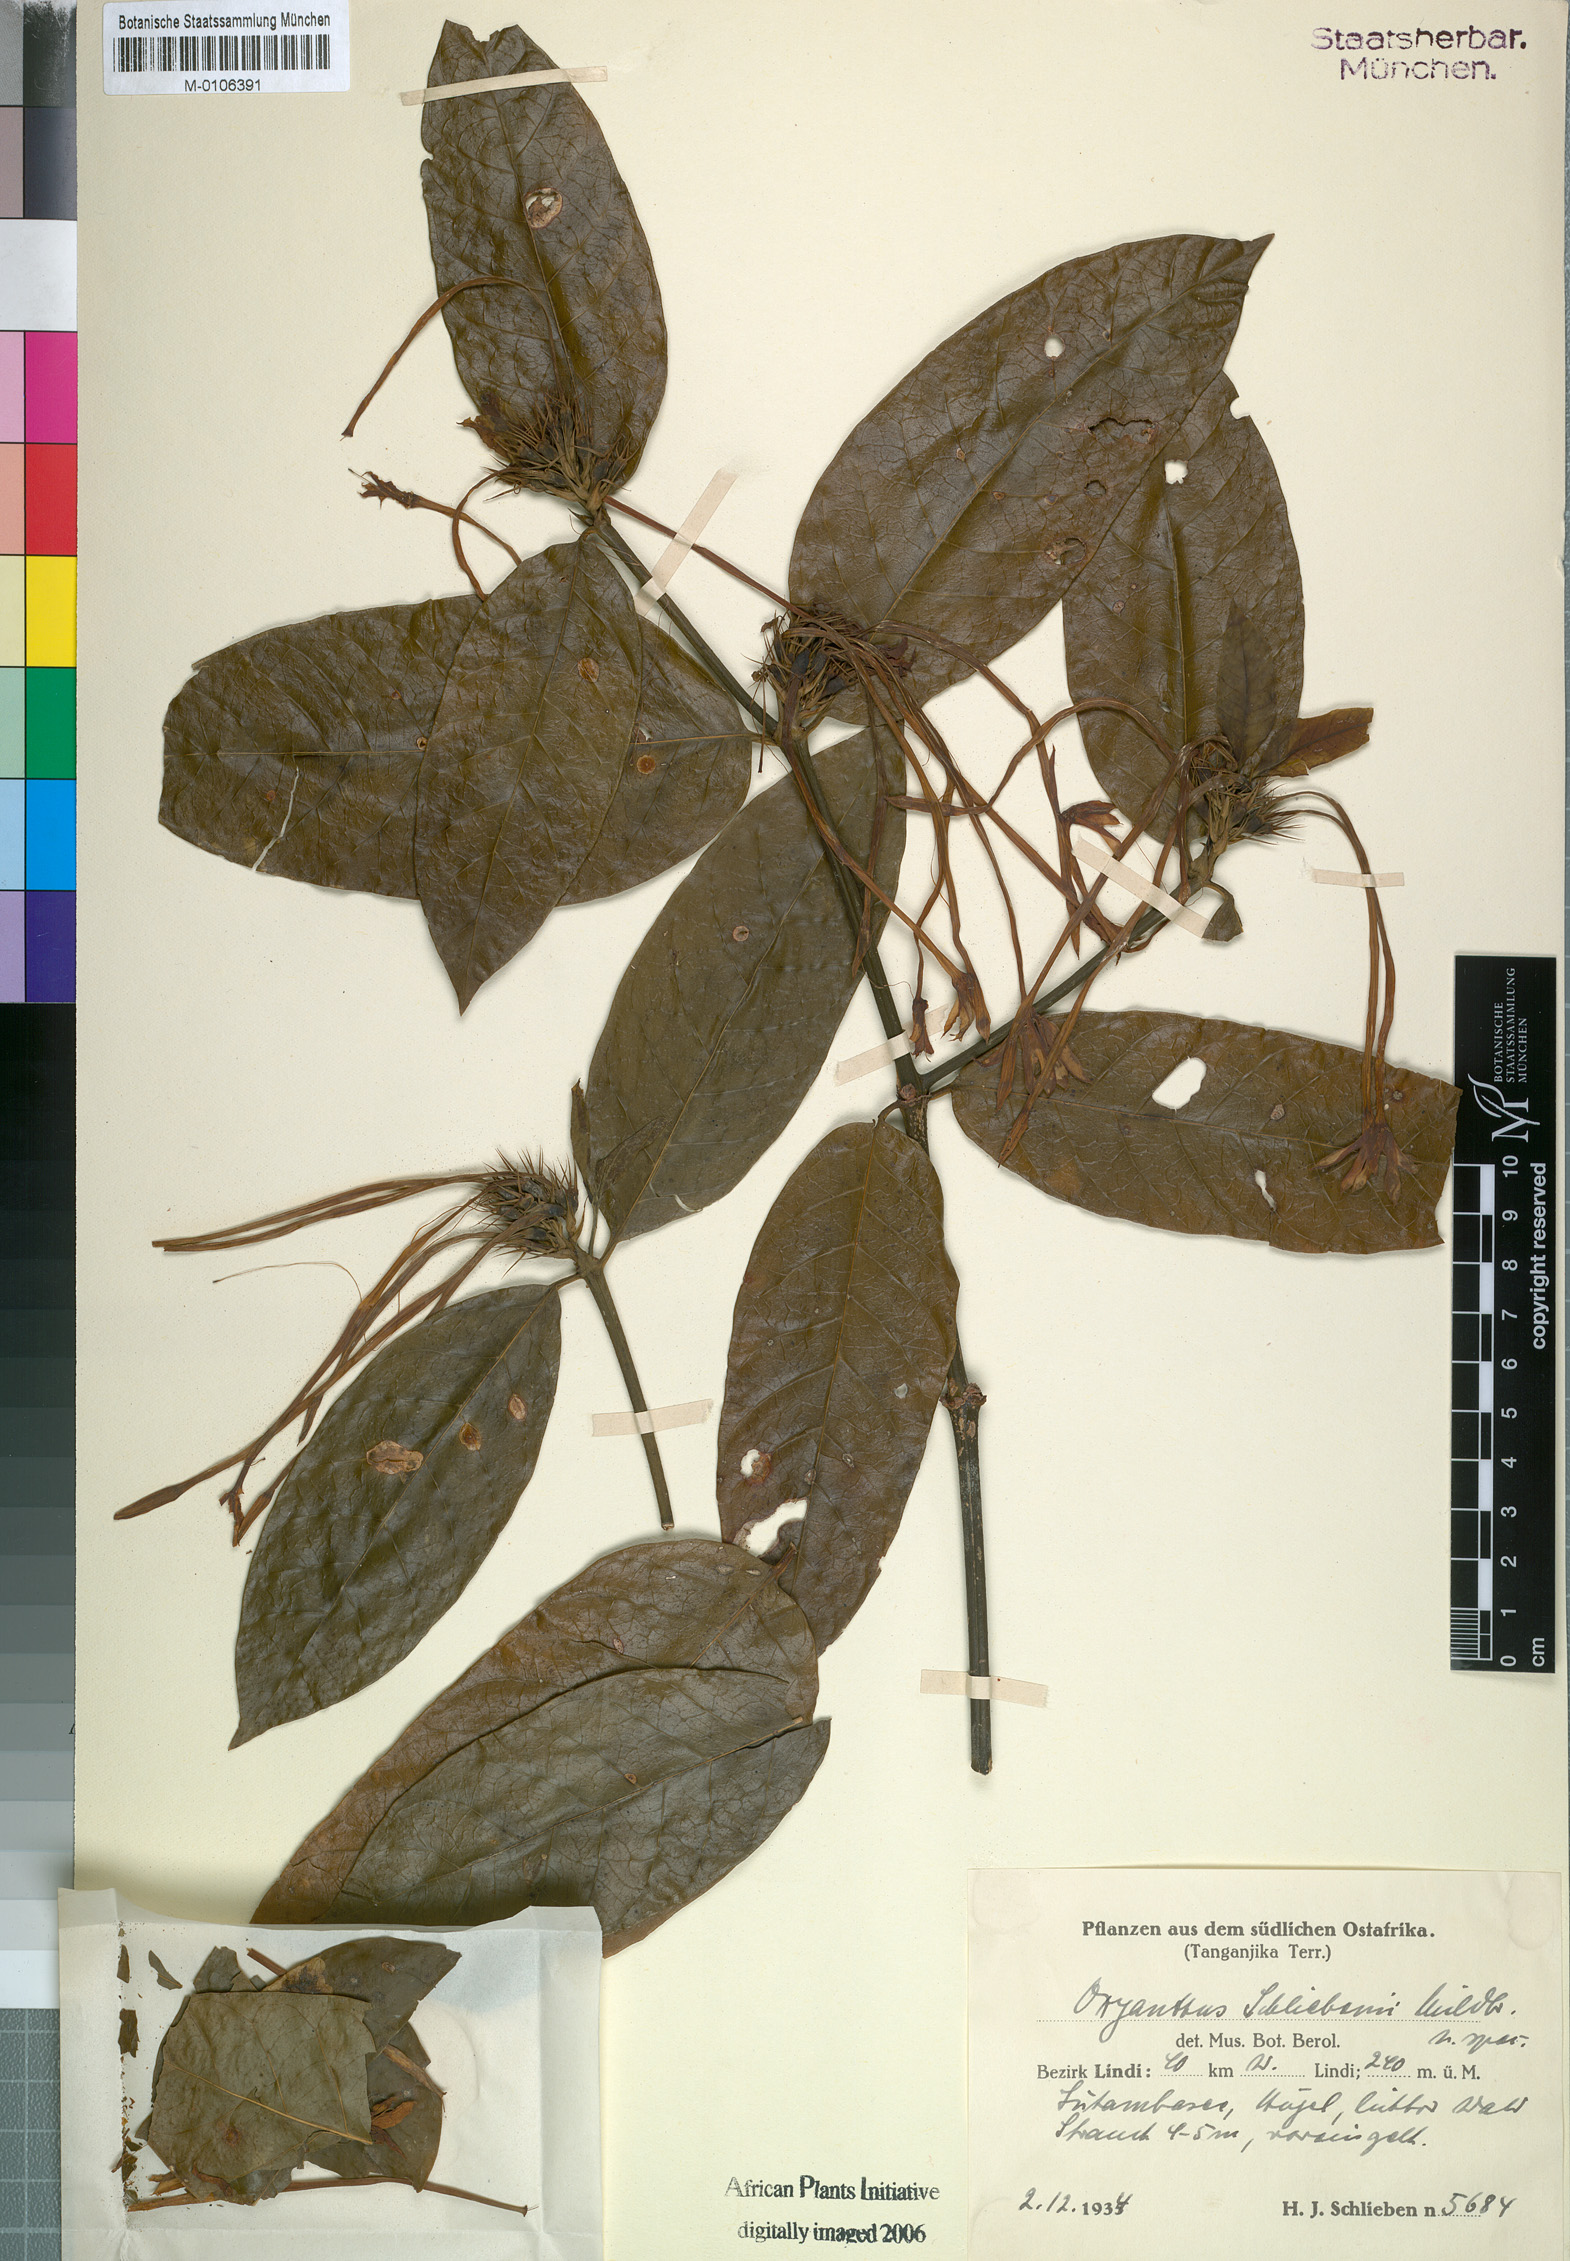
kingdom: Plantae
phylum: Tracheophyta
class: Magnoliopsida
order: Gentianales
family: Rubiaceae
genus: Oxyanthus
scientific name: Oxyanthus zanguebaricus
